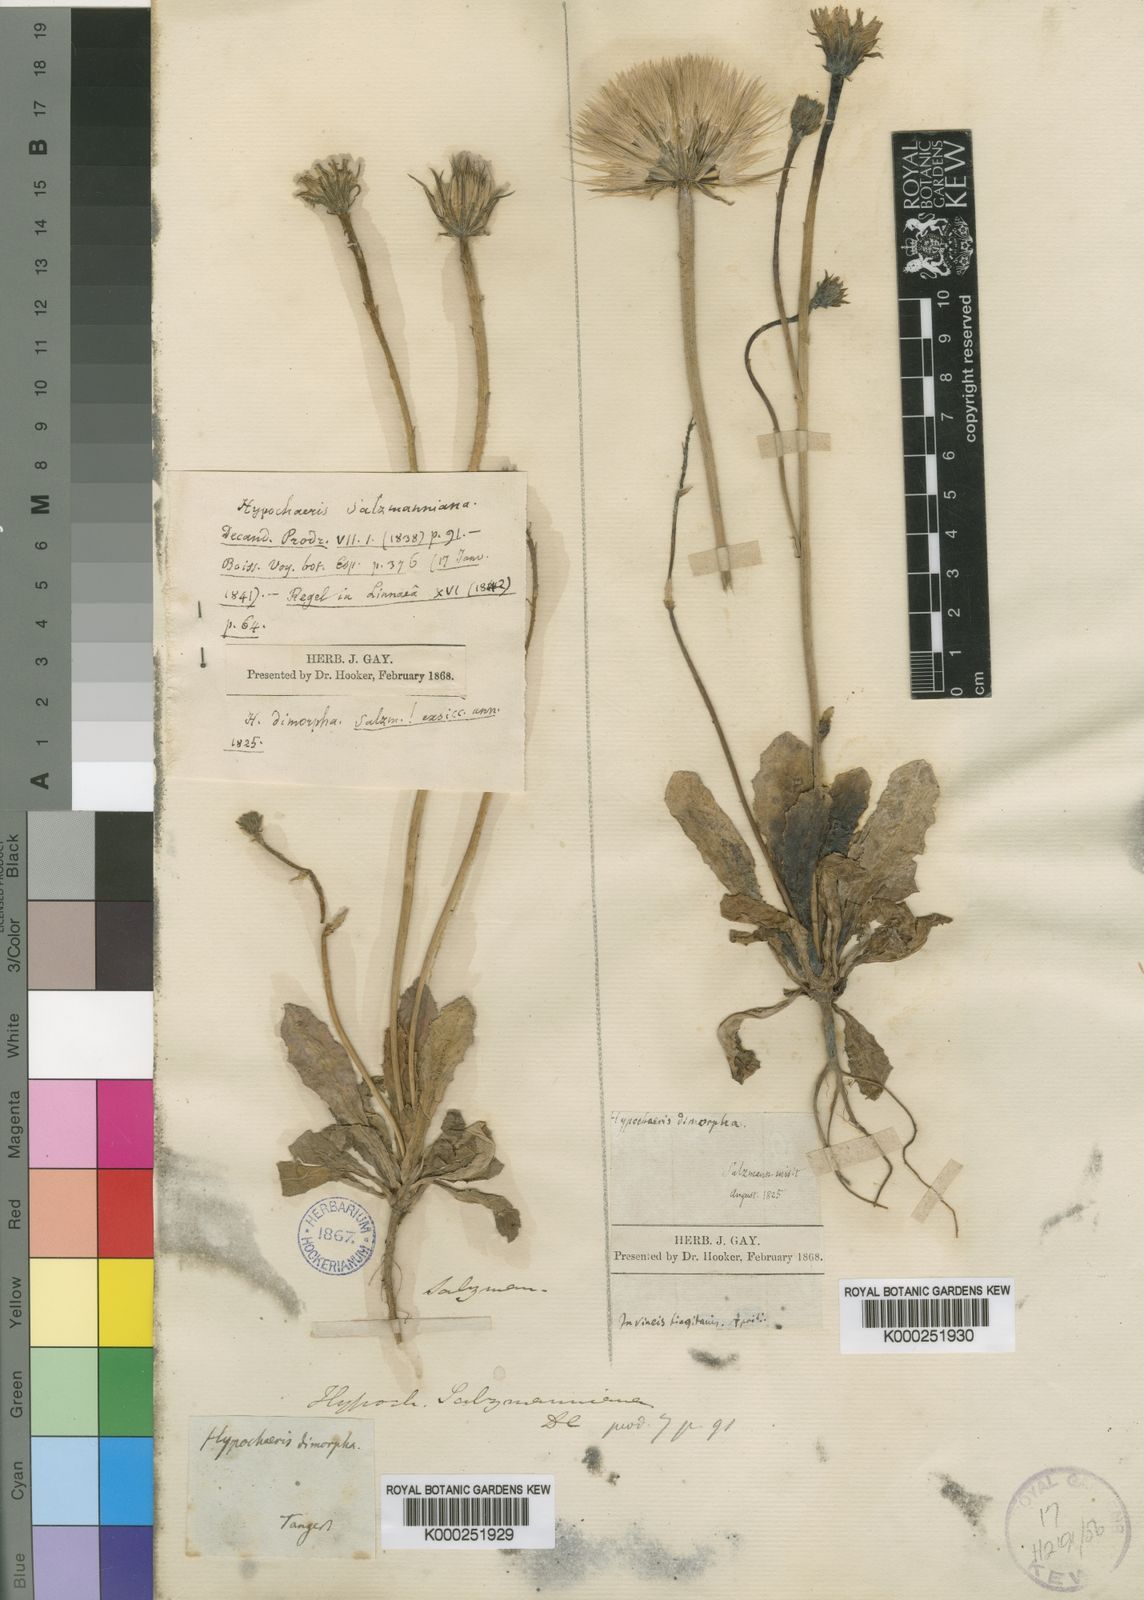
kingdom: Plantae
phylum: Tracheophyta
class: Magnoliopsida
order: Asterales
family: Asteraceae
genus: Hypochaeris
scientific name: Hypochaeris salzmanniana
